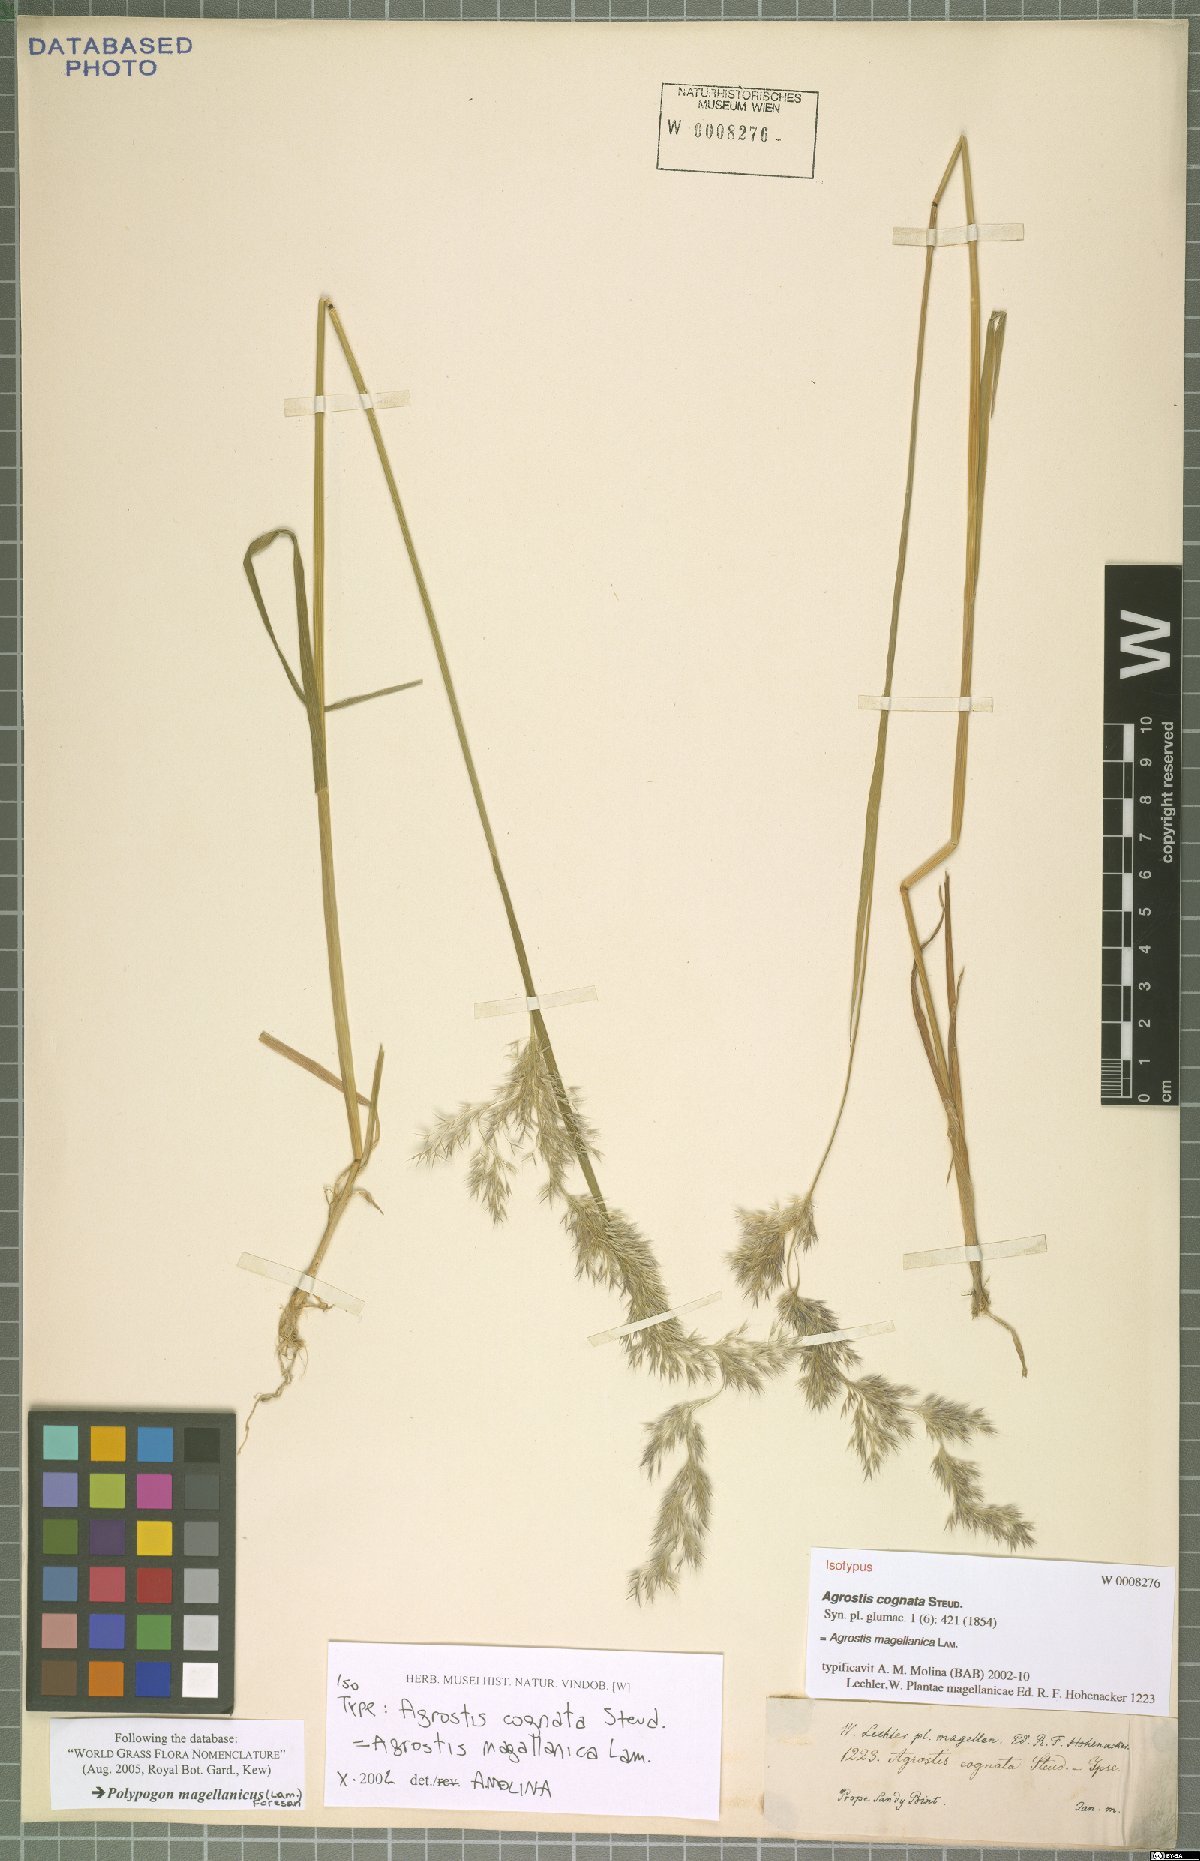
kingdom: Plantae
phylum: Tracheophyta
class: Liliopsida
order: Poales
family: Poaceae
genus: Polypogon
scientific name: Polypogon magellanicus
